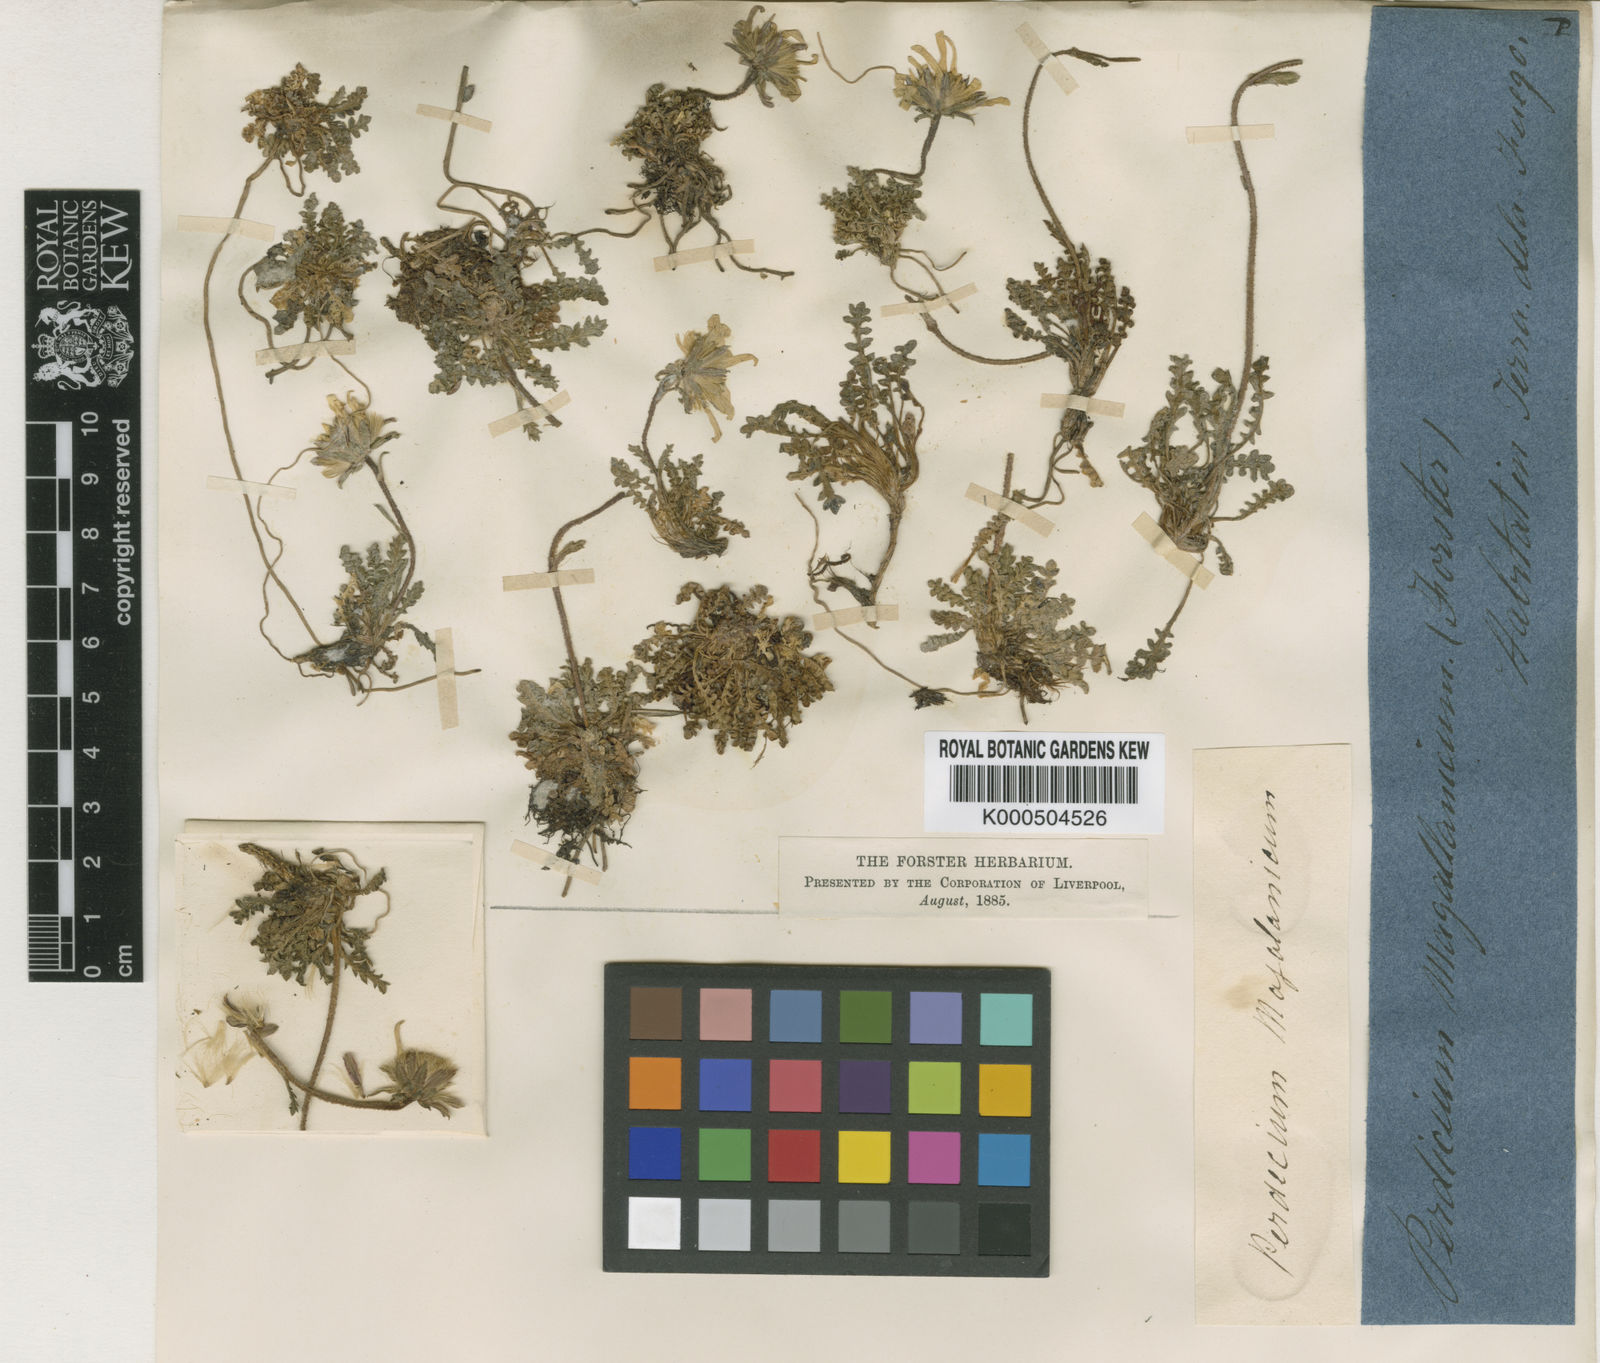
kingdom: Plantae
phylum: Tracheophyta
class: Magnoliopsida
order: Asterales
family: Asteraceae
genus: Perezia
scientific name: Perezia magellanica
